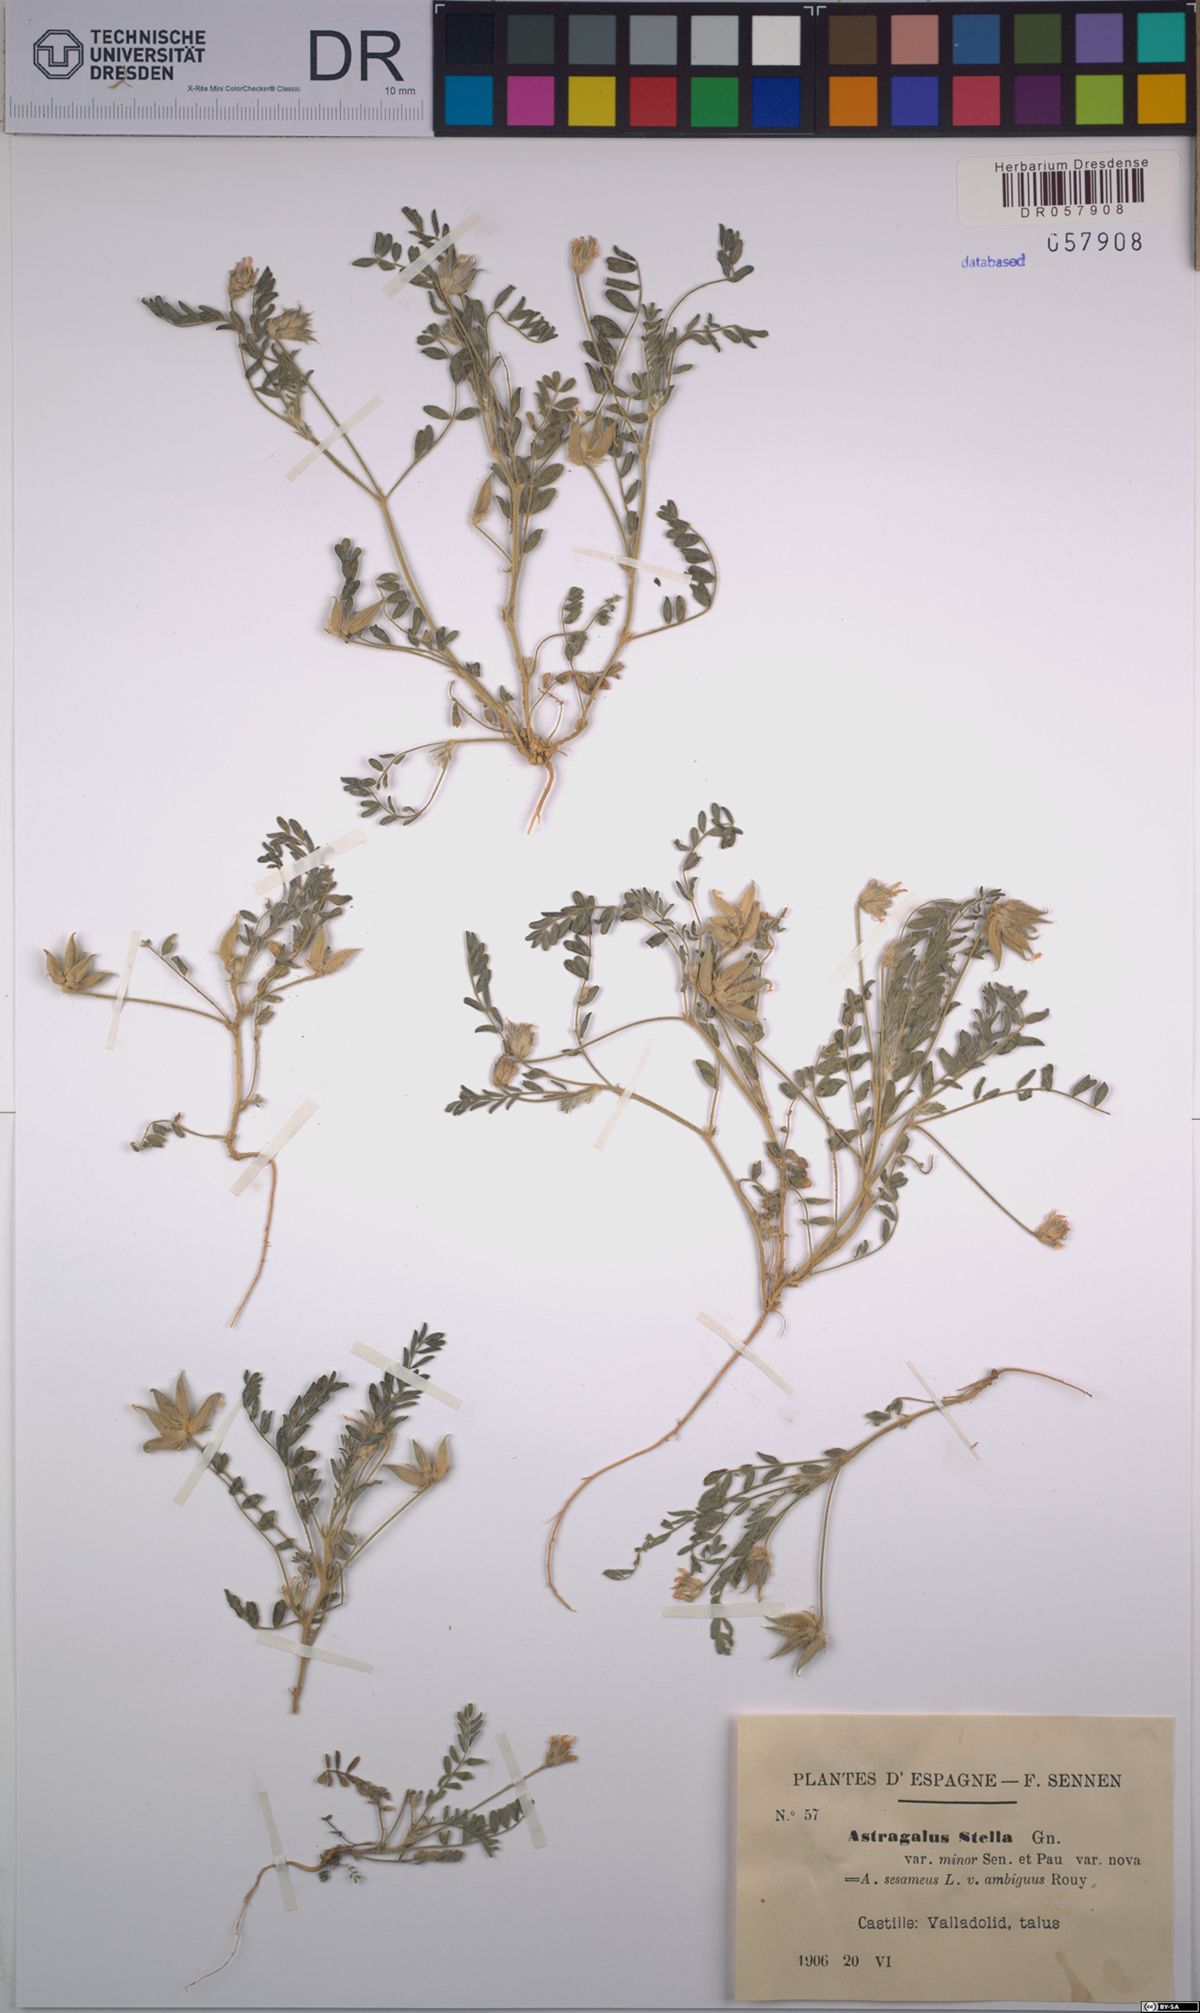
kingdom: Plantae
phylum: Tracheophyta
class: Magnoliopsida
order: Fabales
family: Fabaceae
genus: Astragalus
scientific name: Astragalus stella
